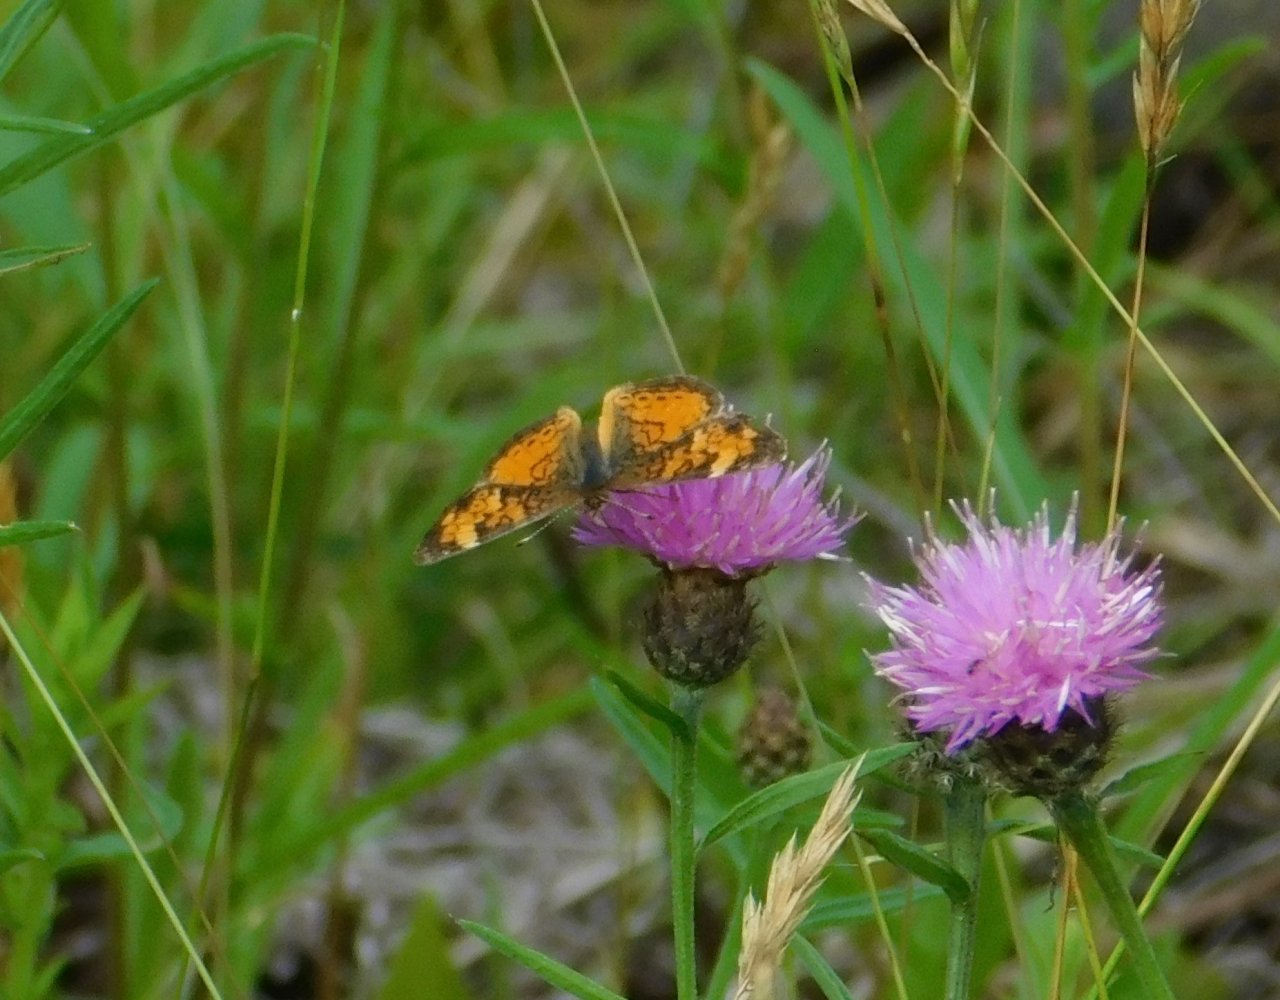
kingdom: Animalia
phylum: Arthropoda
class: Insecta
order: Lepidoptera
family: Nymphalidae
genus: Phyciodes
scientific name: Phyciodes tharos
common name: Northern Crescent
